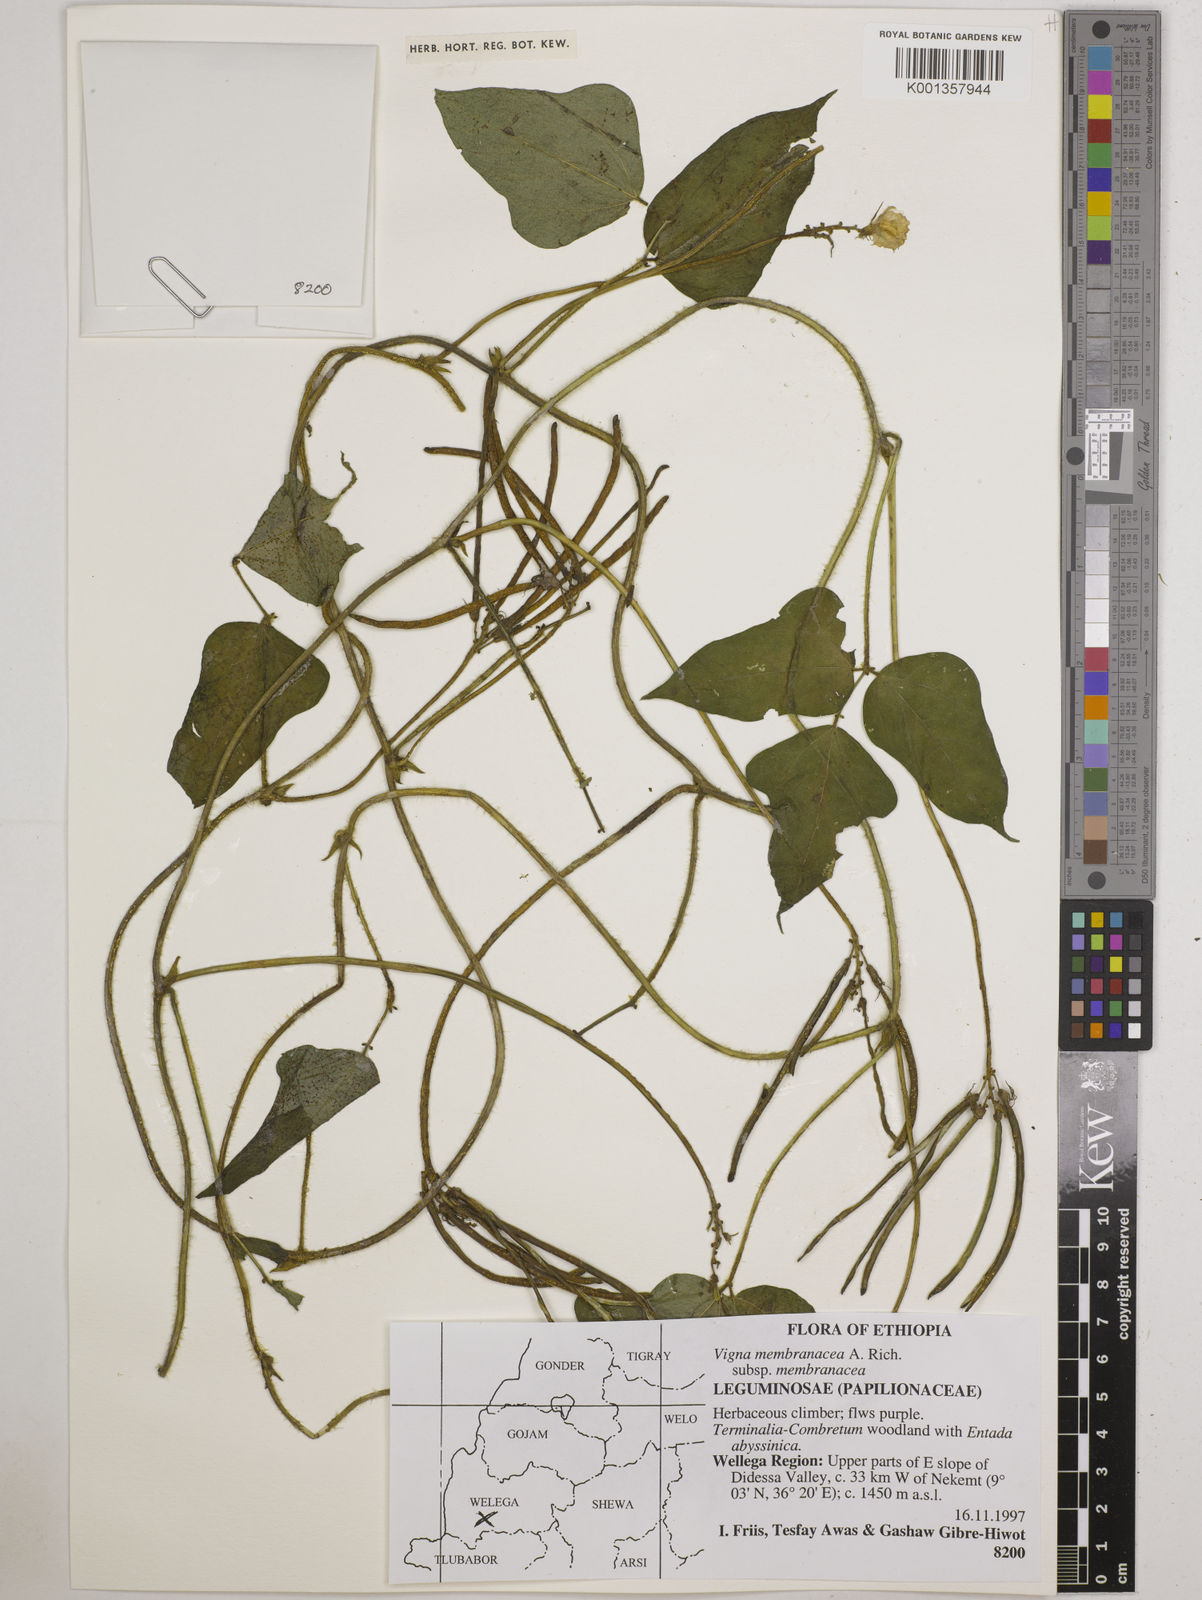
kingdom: Plantae
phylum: Tracheophyta
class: Magnoliopsida
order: Fabales
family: Fabaceae
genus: Vigna
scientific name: Vigna membranacea
